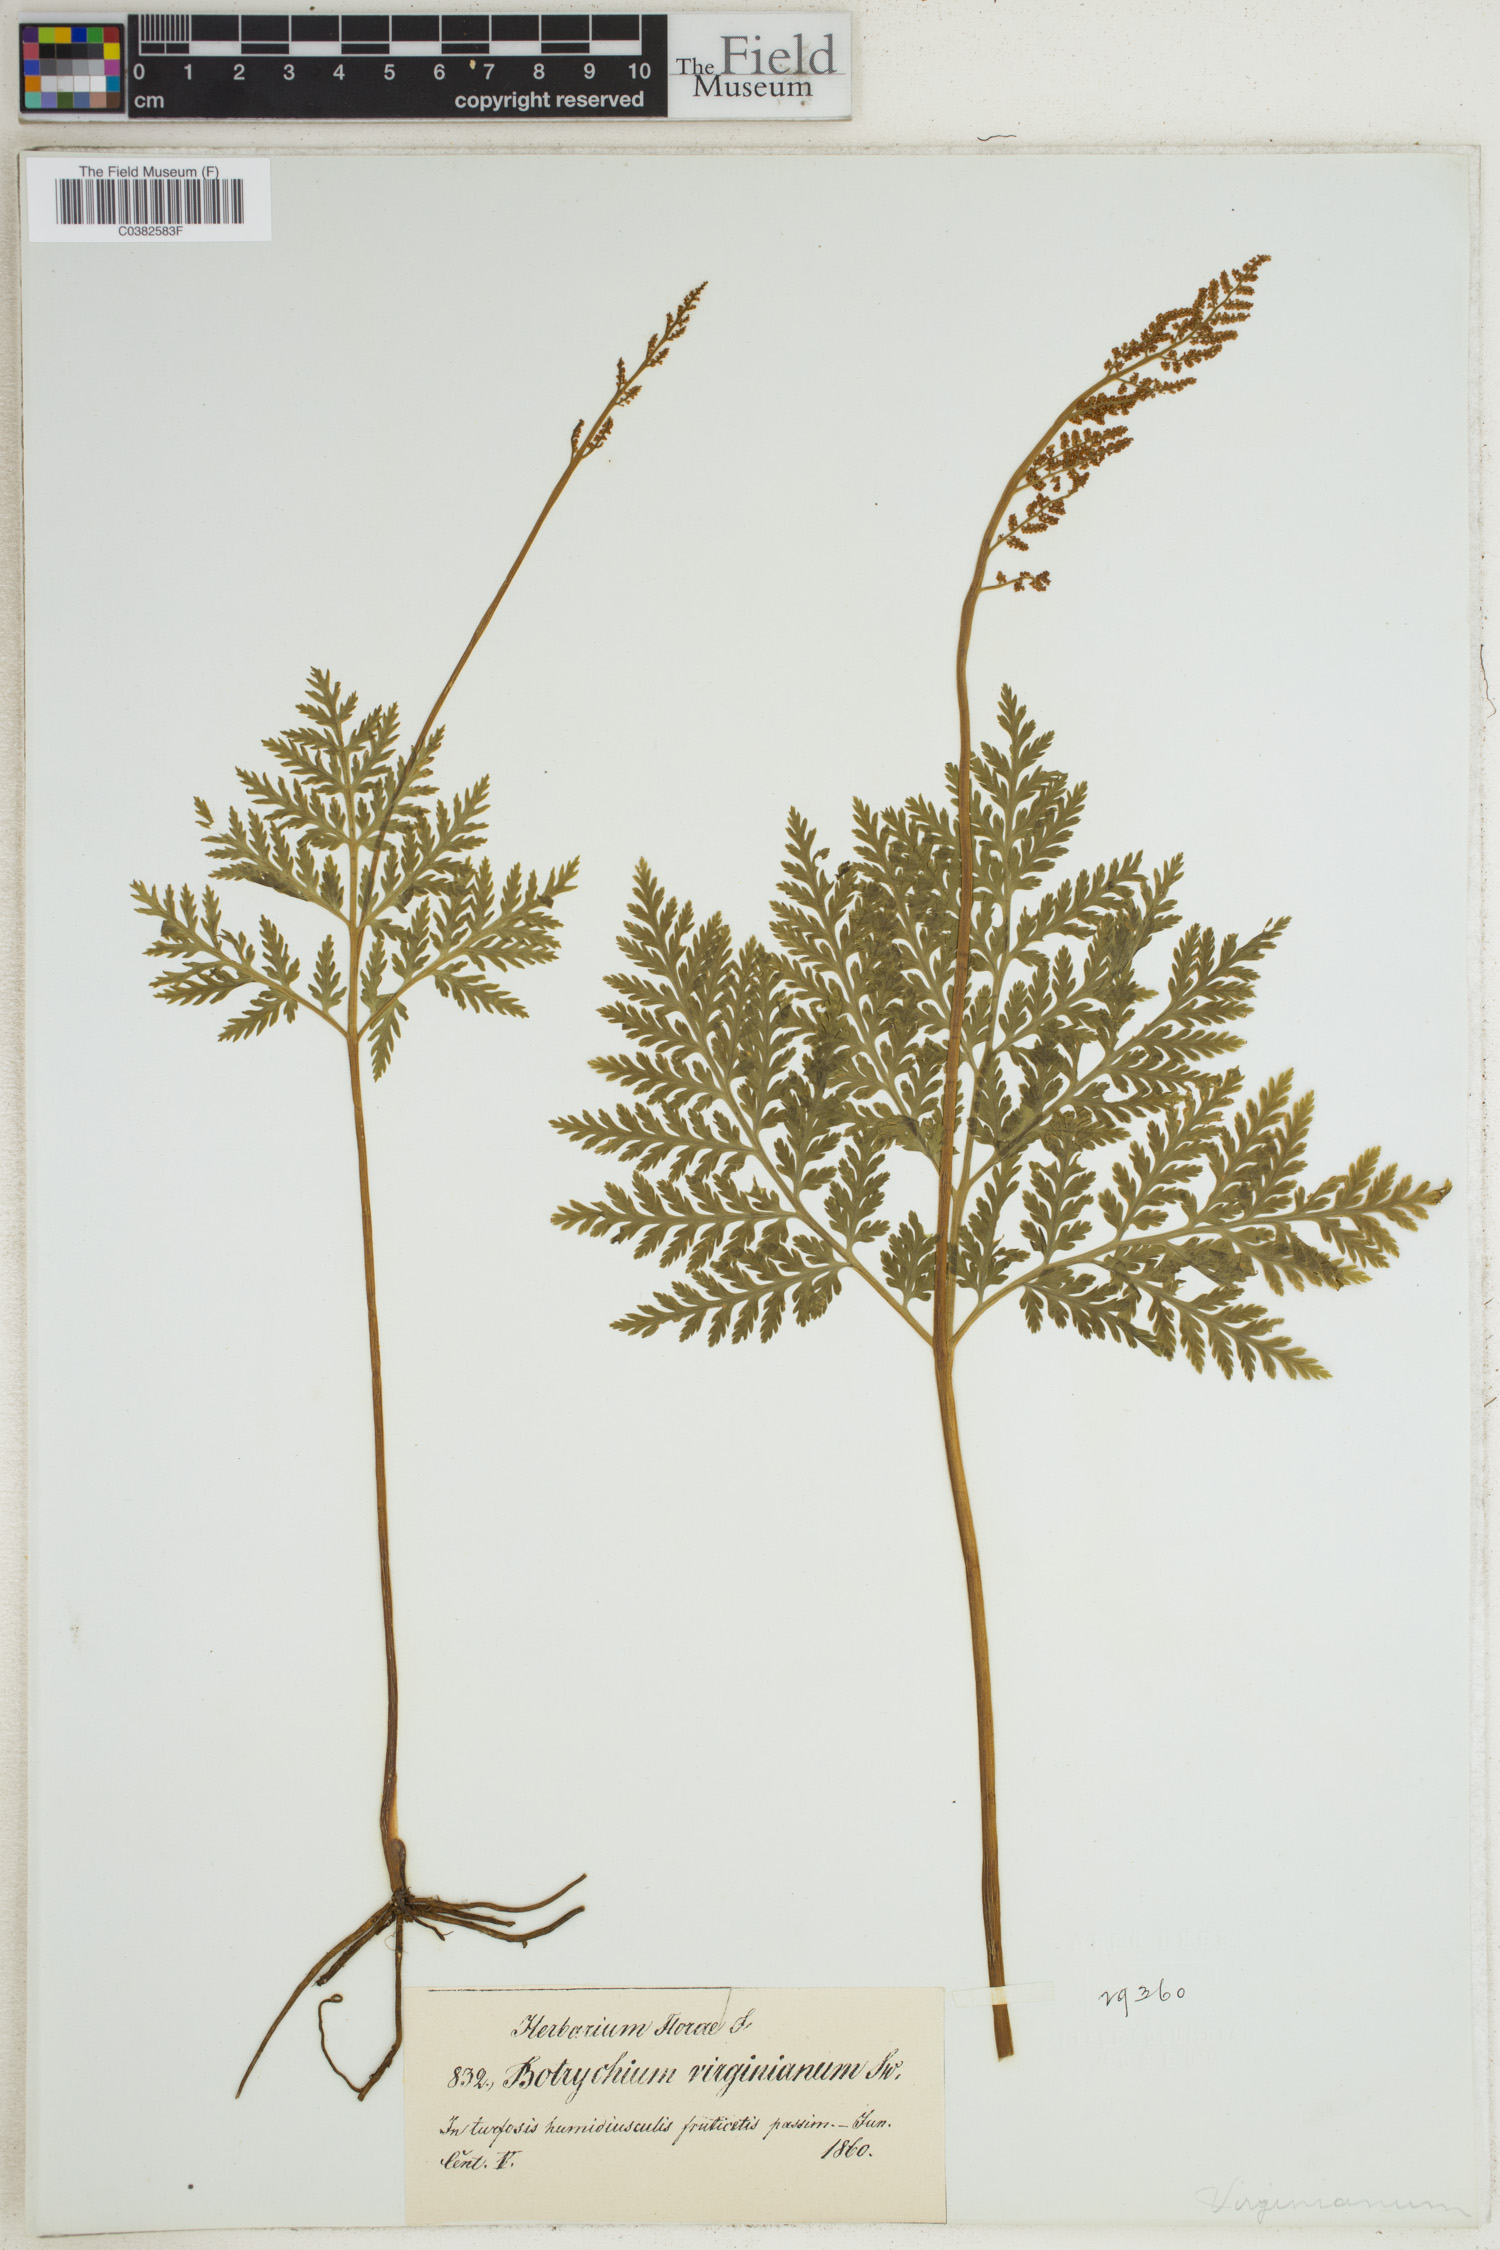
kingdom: Plantae
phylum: Tracheophyta
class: Polypodiopsida
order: Ophioglossales
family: Ophioglossaceae
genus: Botrypus
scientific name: Botrypus virginianus
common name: Common grapefern
